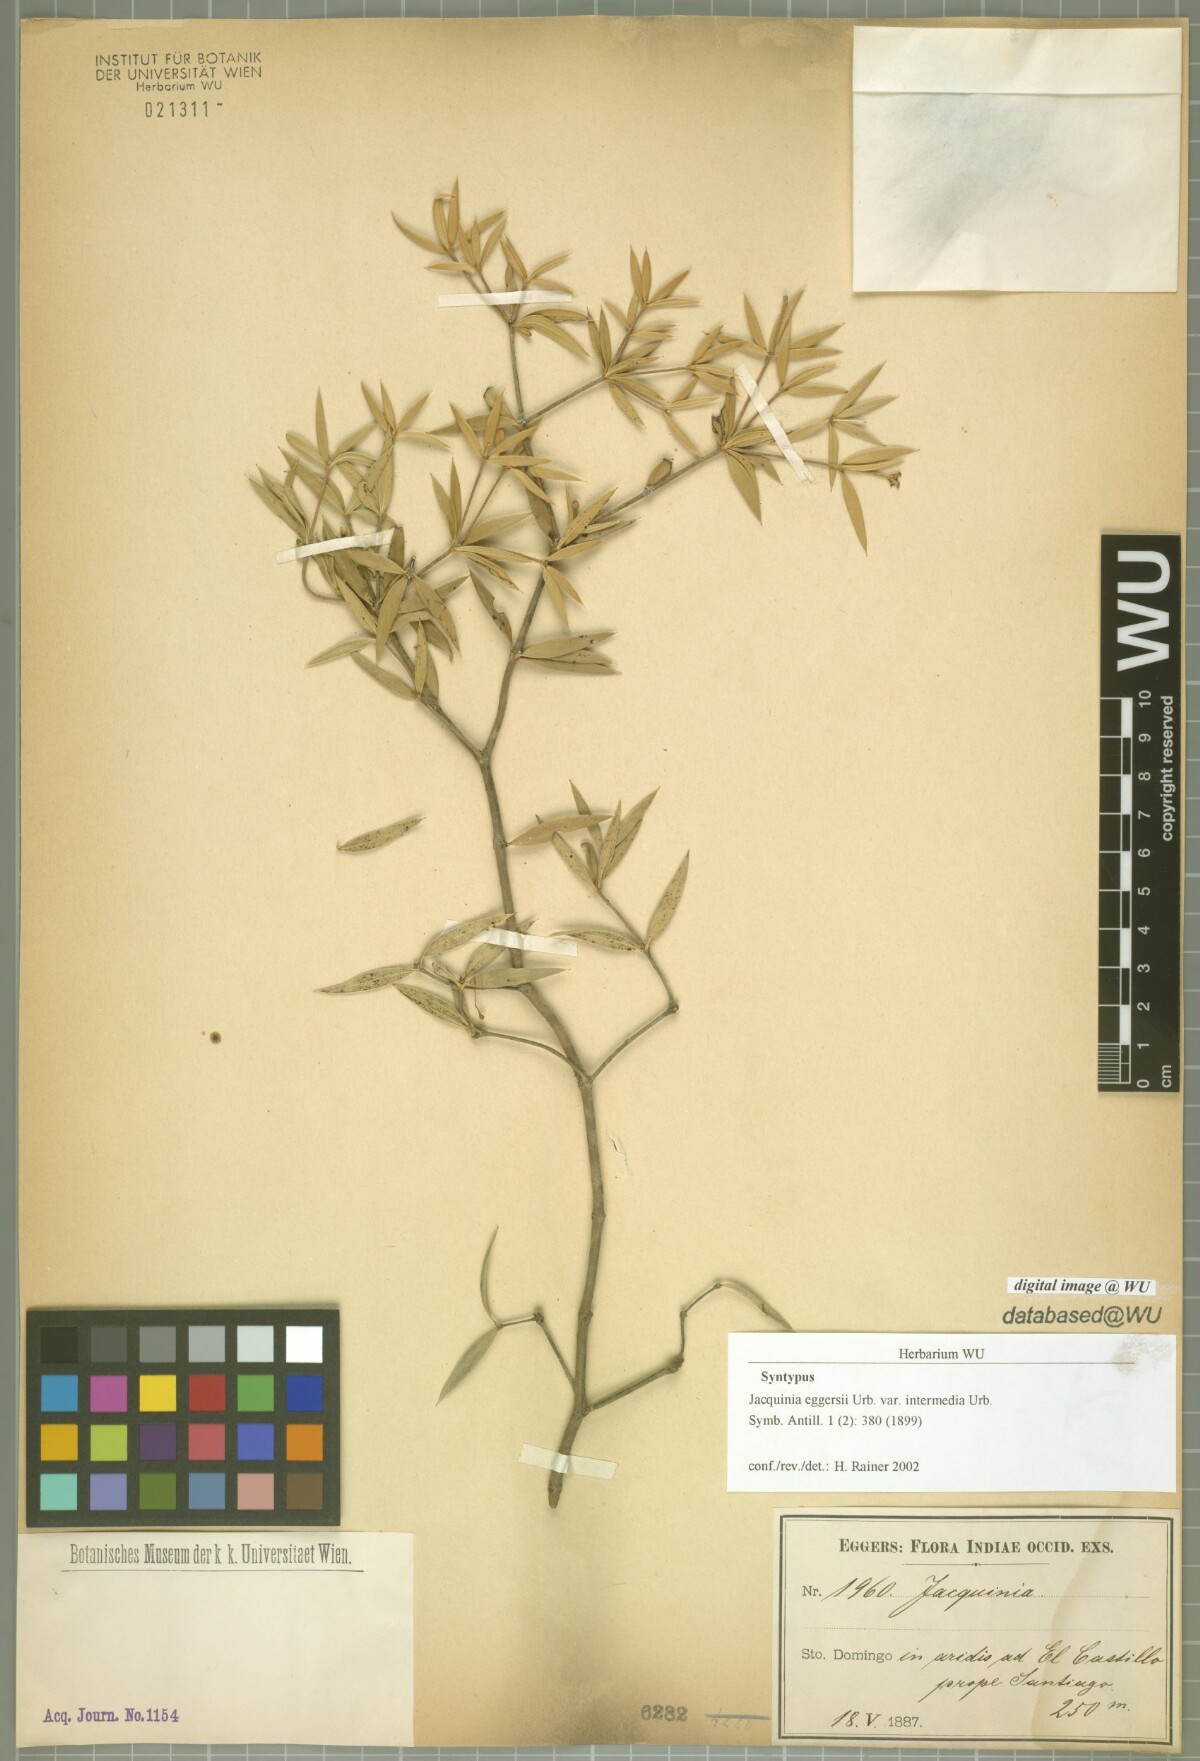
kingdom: Plantae
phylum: Tracheophyta
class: Magnoliopsida
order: Ericales
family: Primulaceae
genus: Jacquinia
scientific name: Jacquinia aculeata
